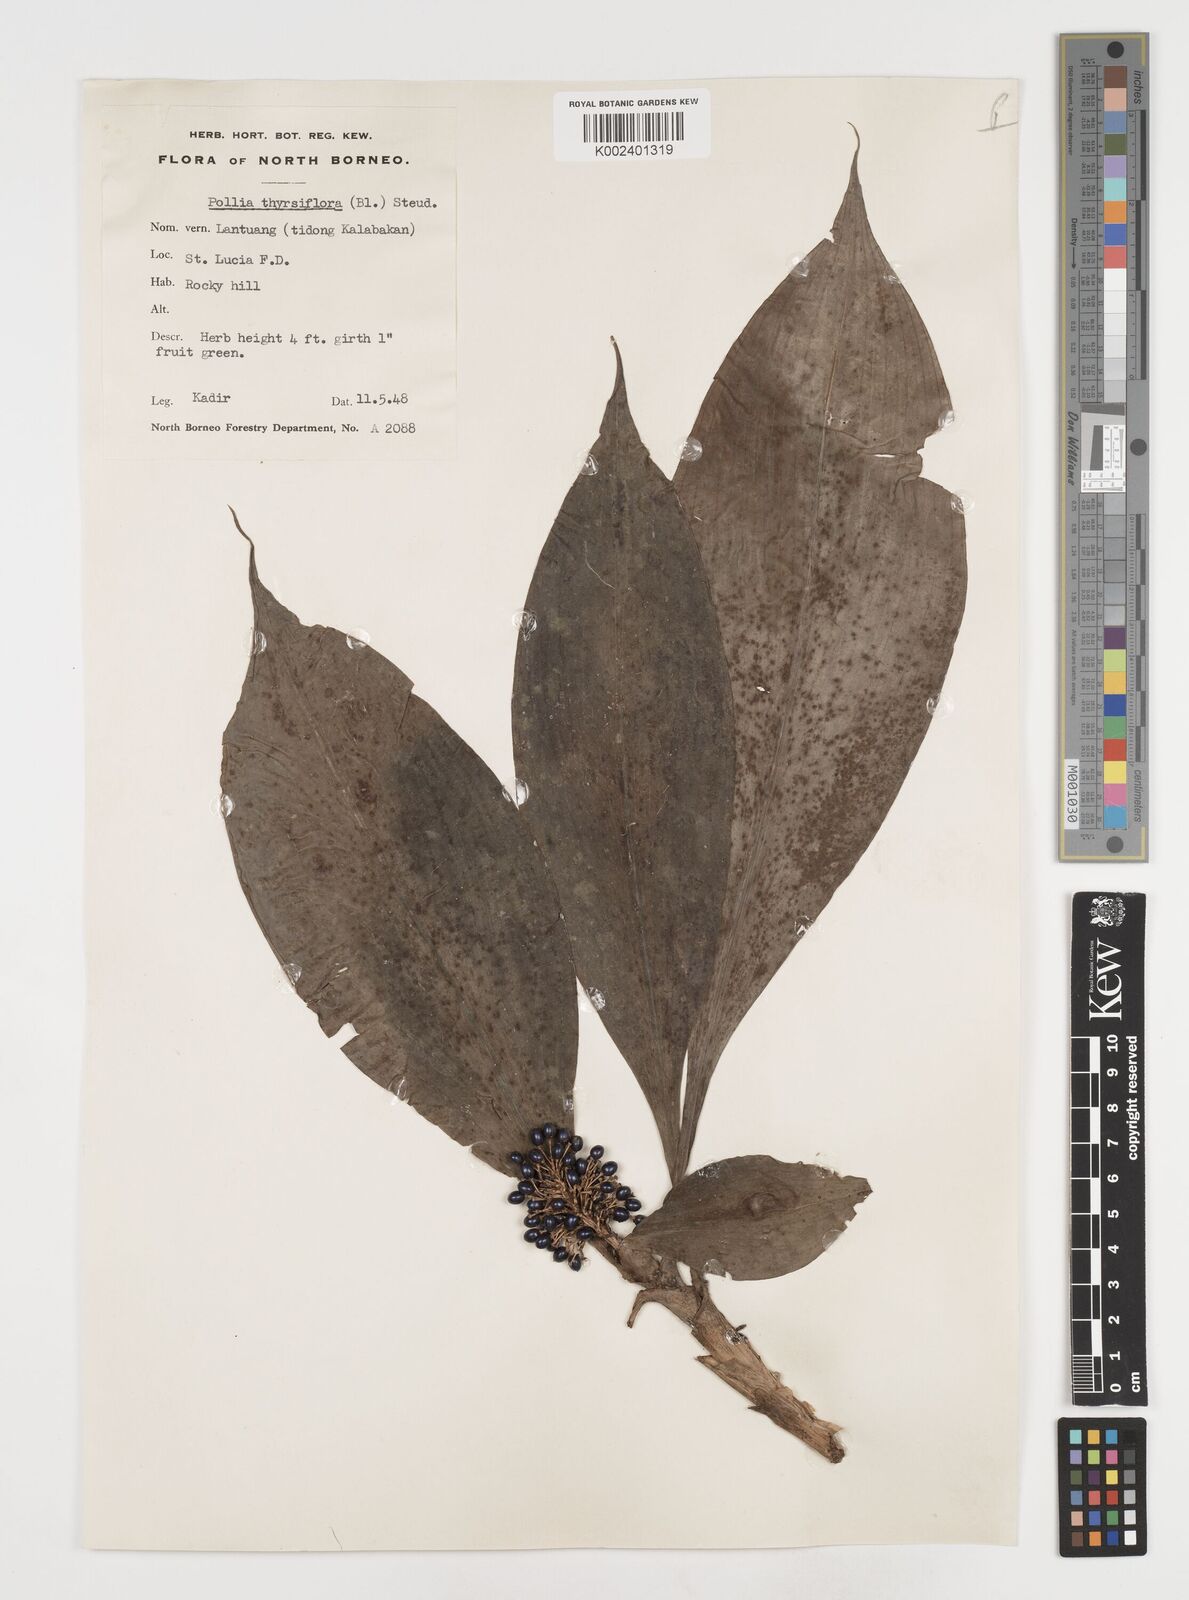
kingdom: Plantae
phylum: Tracheophyta
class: Liliopsida
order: Commelinales
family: Commelinaceae
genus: Pollia
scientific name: Pollia thyrsiflora
